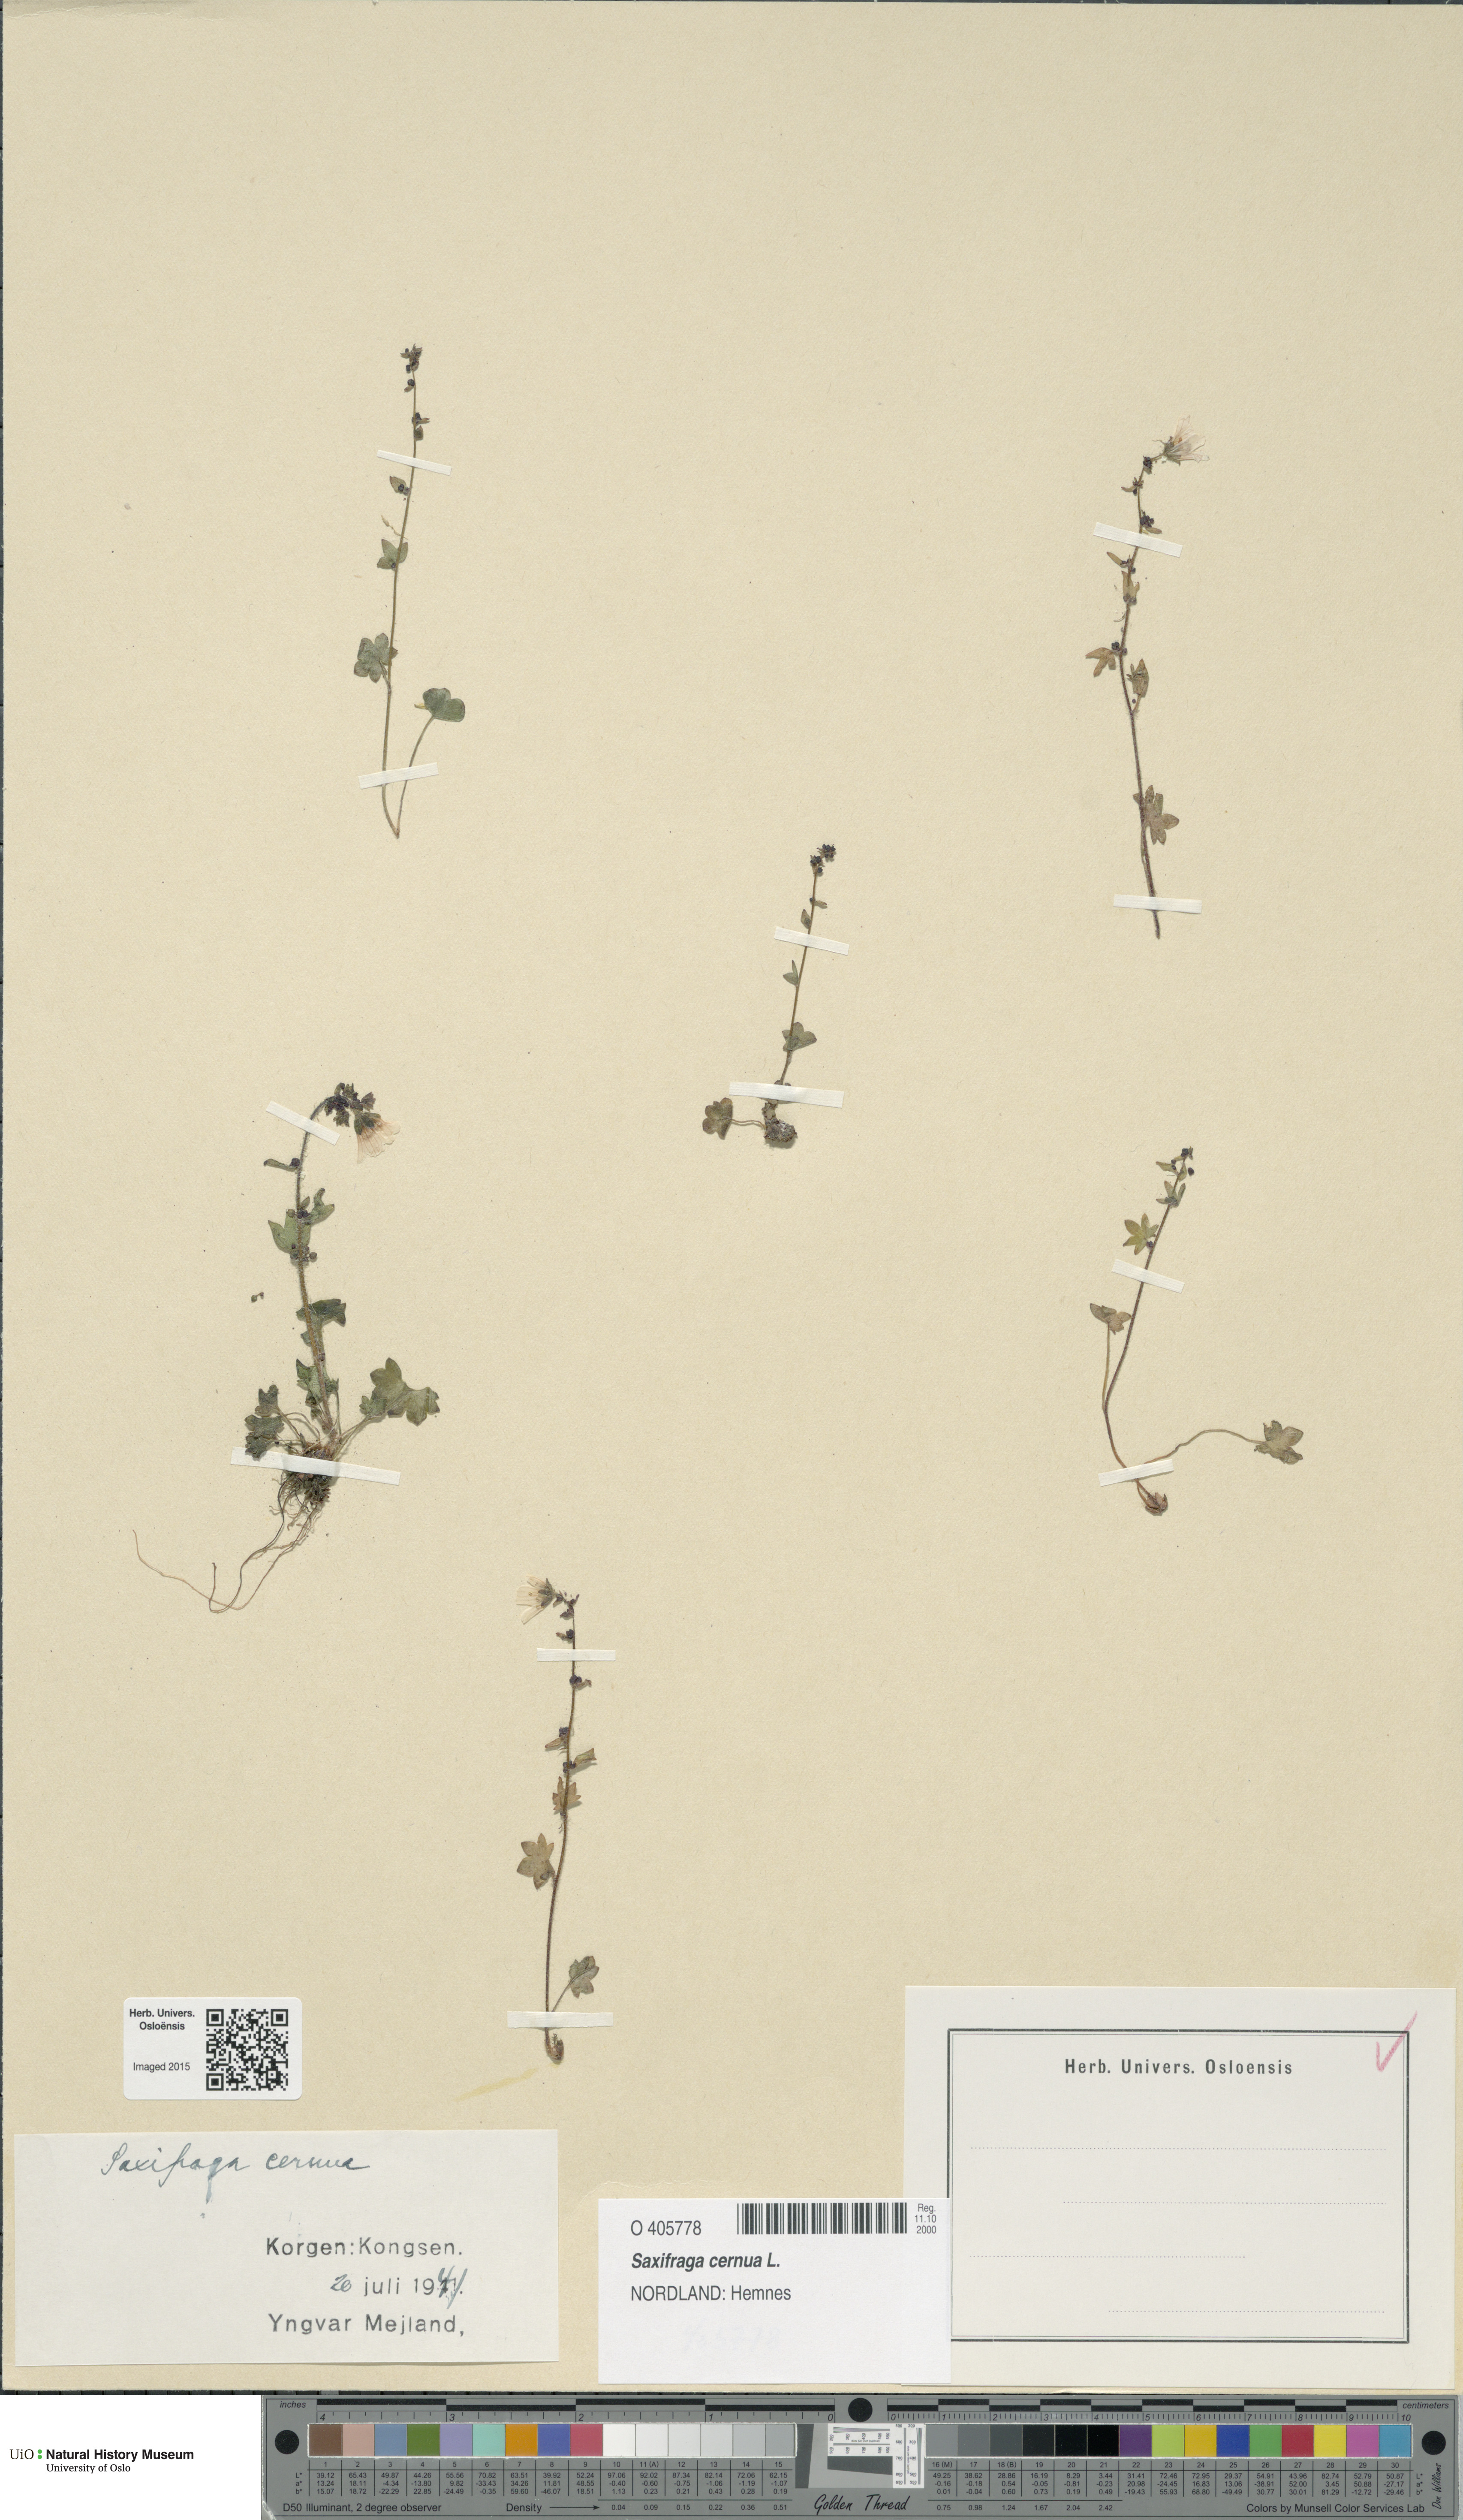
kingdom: Plantae
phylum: Tracheophyta
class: Magnoliopsida
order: Saxifragales
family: Saxifragaceae
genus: Saxifraga
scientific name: Saxifraga cernua
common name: Drooping saxifrage
